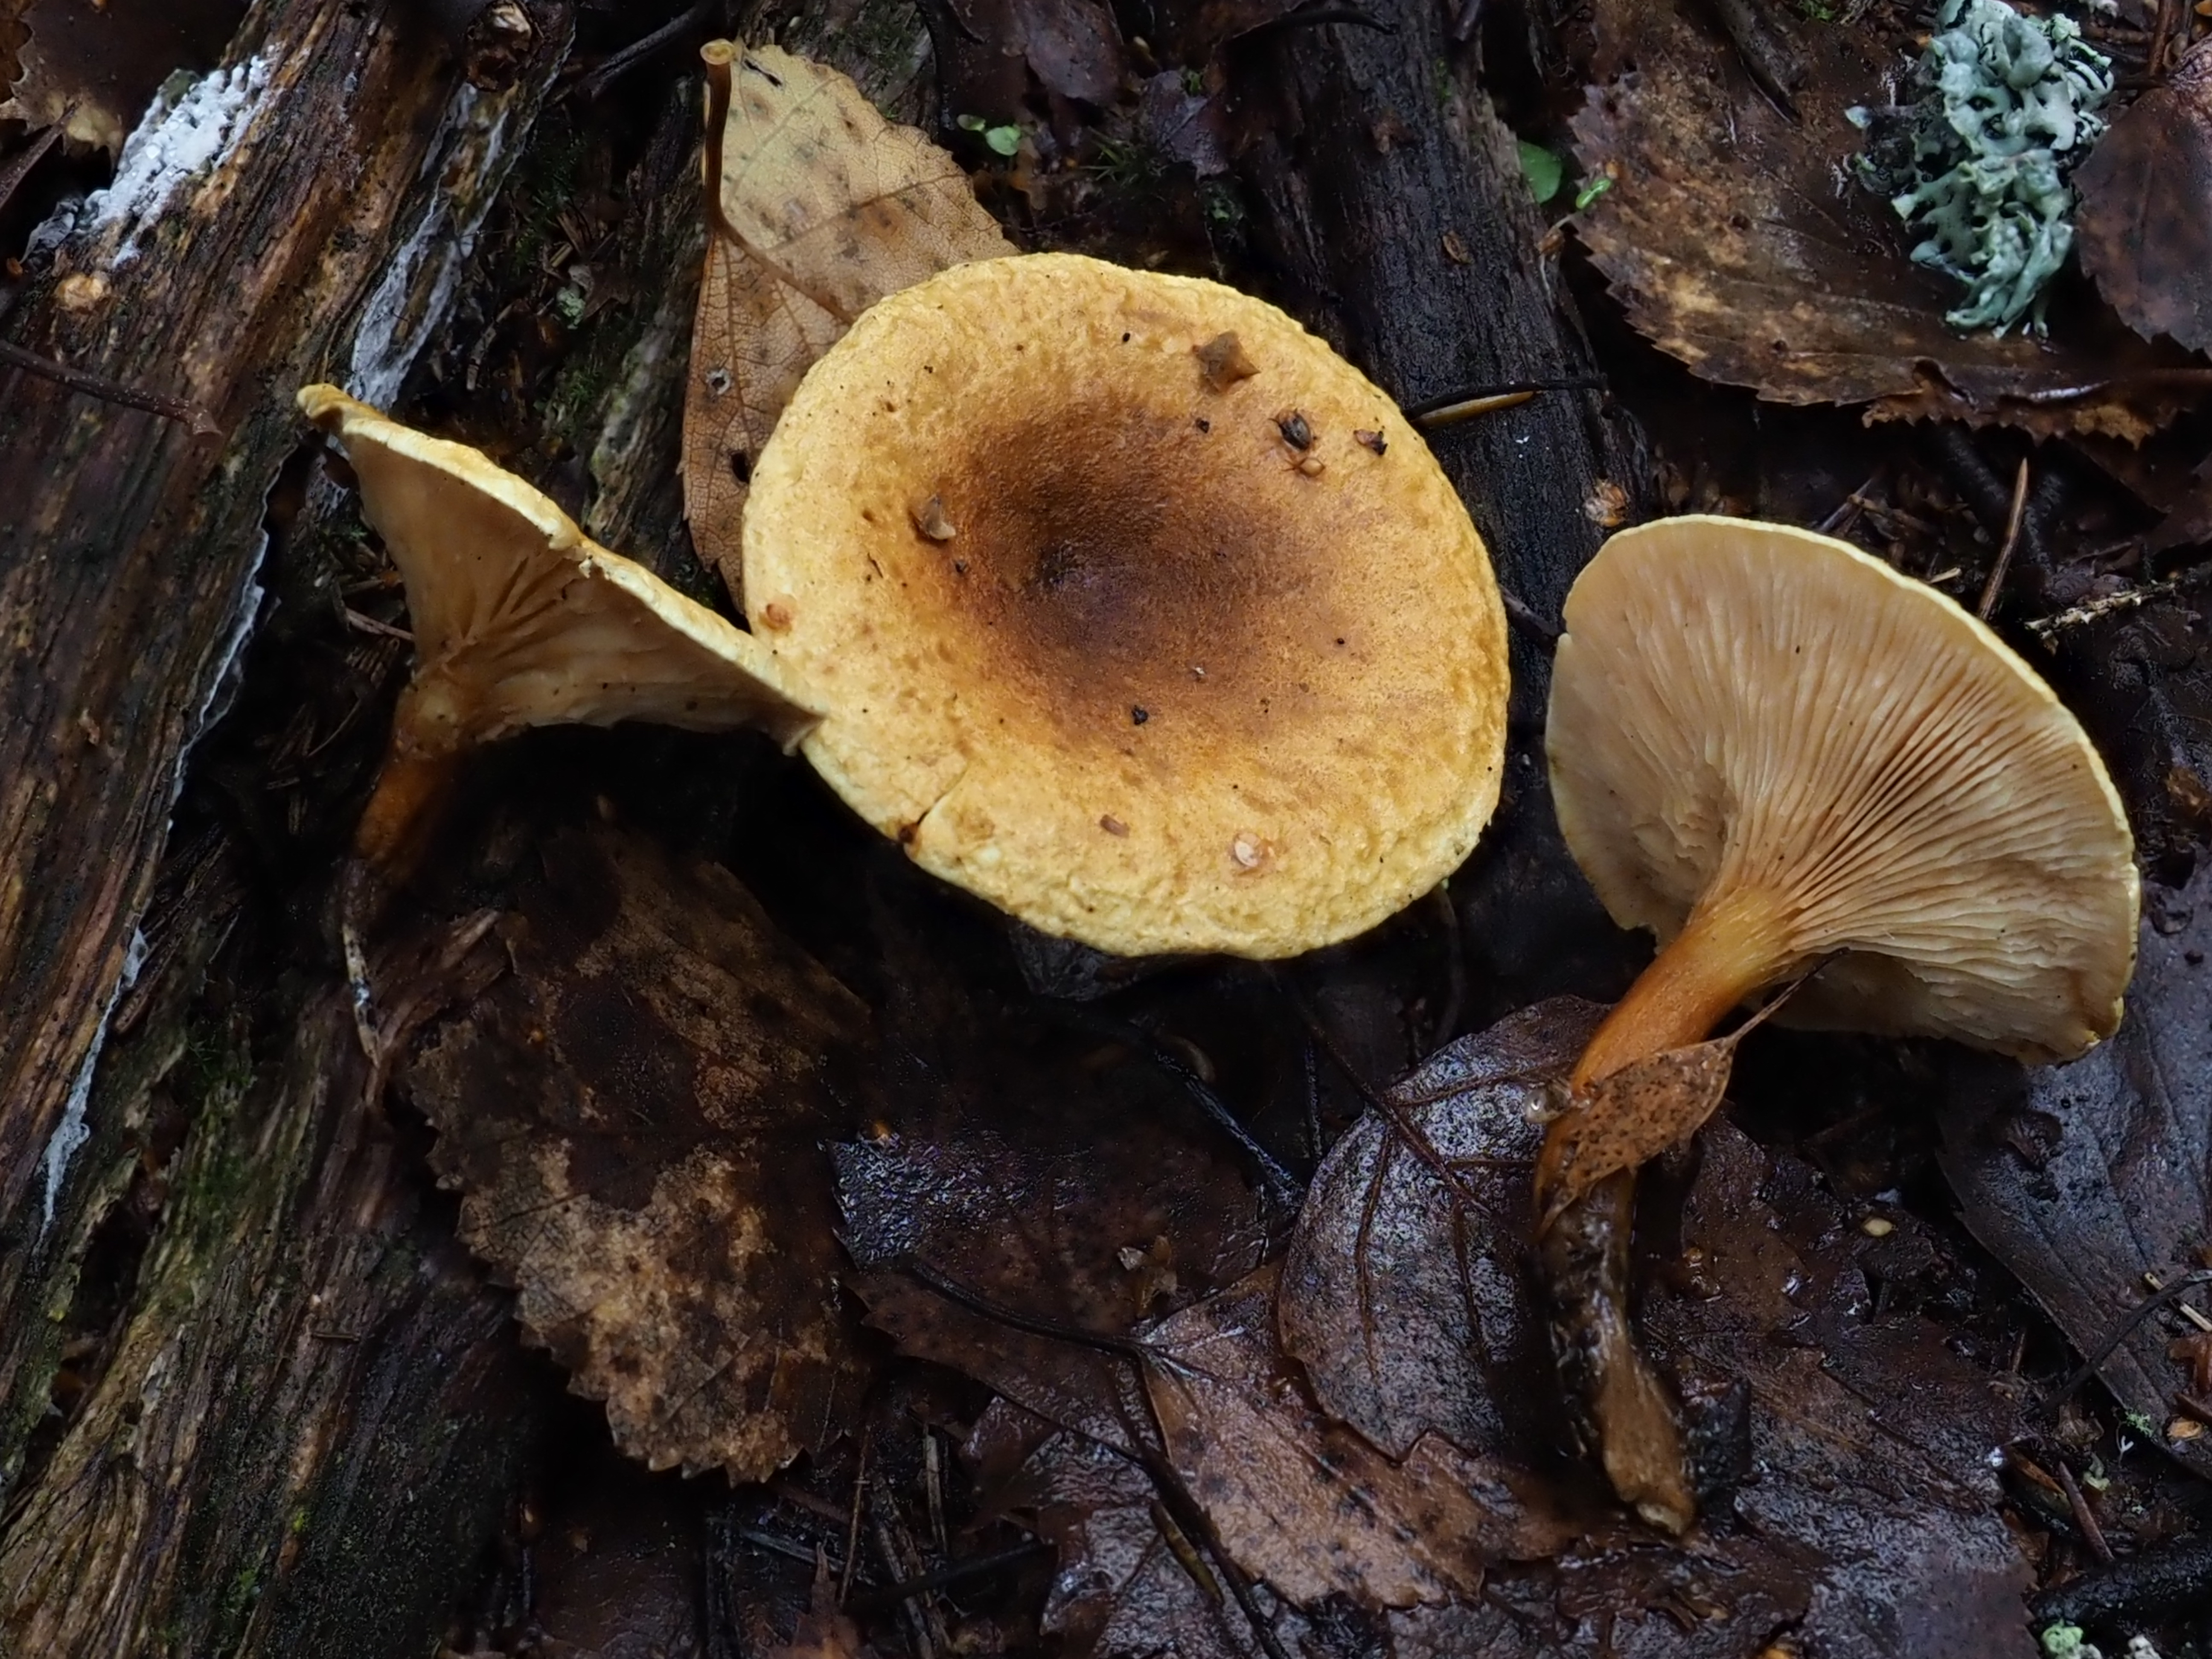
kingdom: Fungi
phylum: Basidiomycota
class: Agaricomycetes
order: Boletales
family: Hygrophoropsidaceae
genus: Hygrophoropsis
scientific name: Hygrophoropsis aurantiaca
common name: False chanterelle
